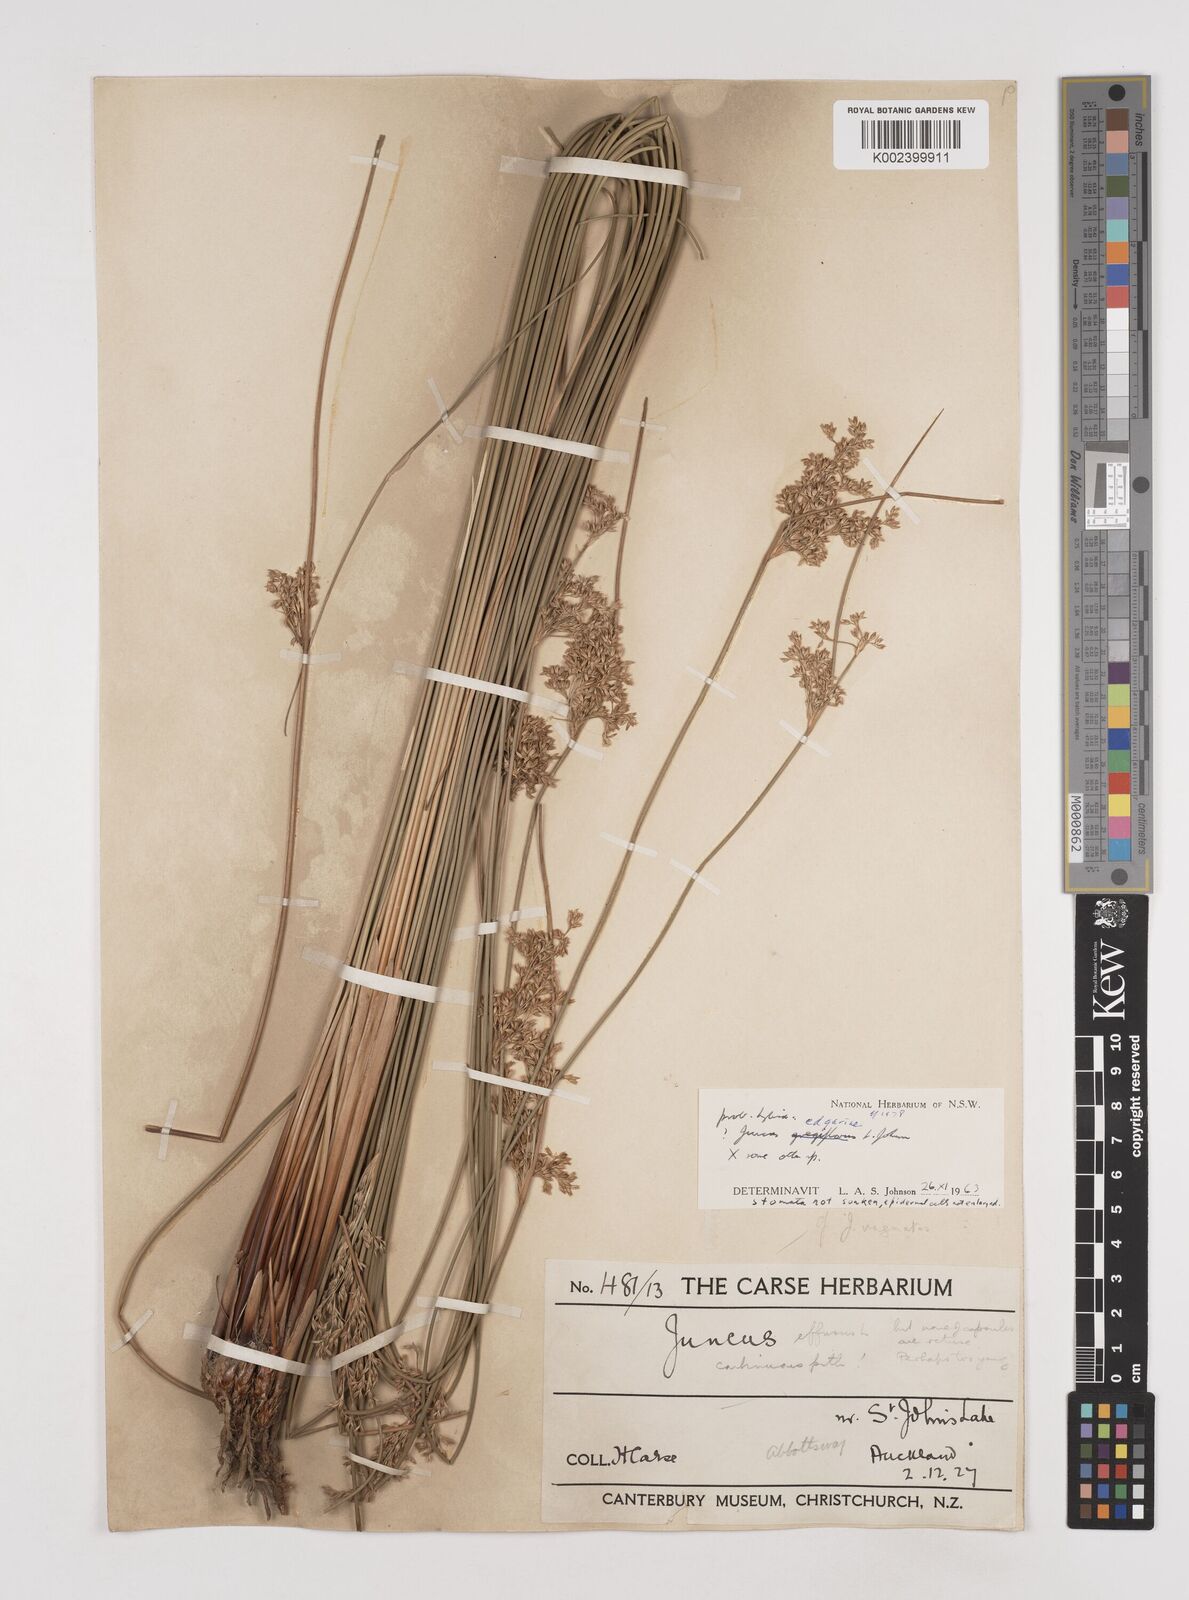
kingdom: Plantae
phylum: Tracheophyta
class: Liliopsida
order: Poales
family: Juncaceae
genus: Juncus
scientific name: Juncus hybridus
